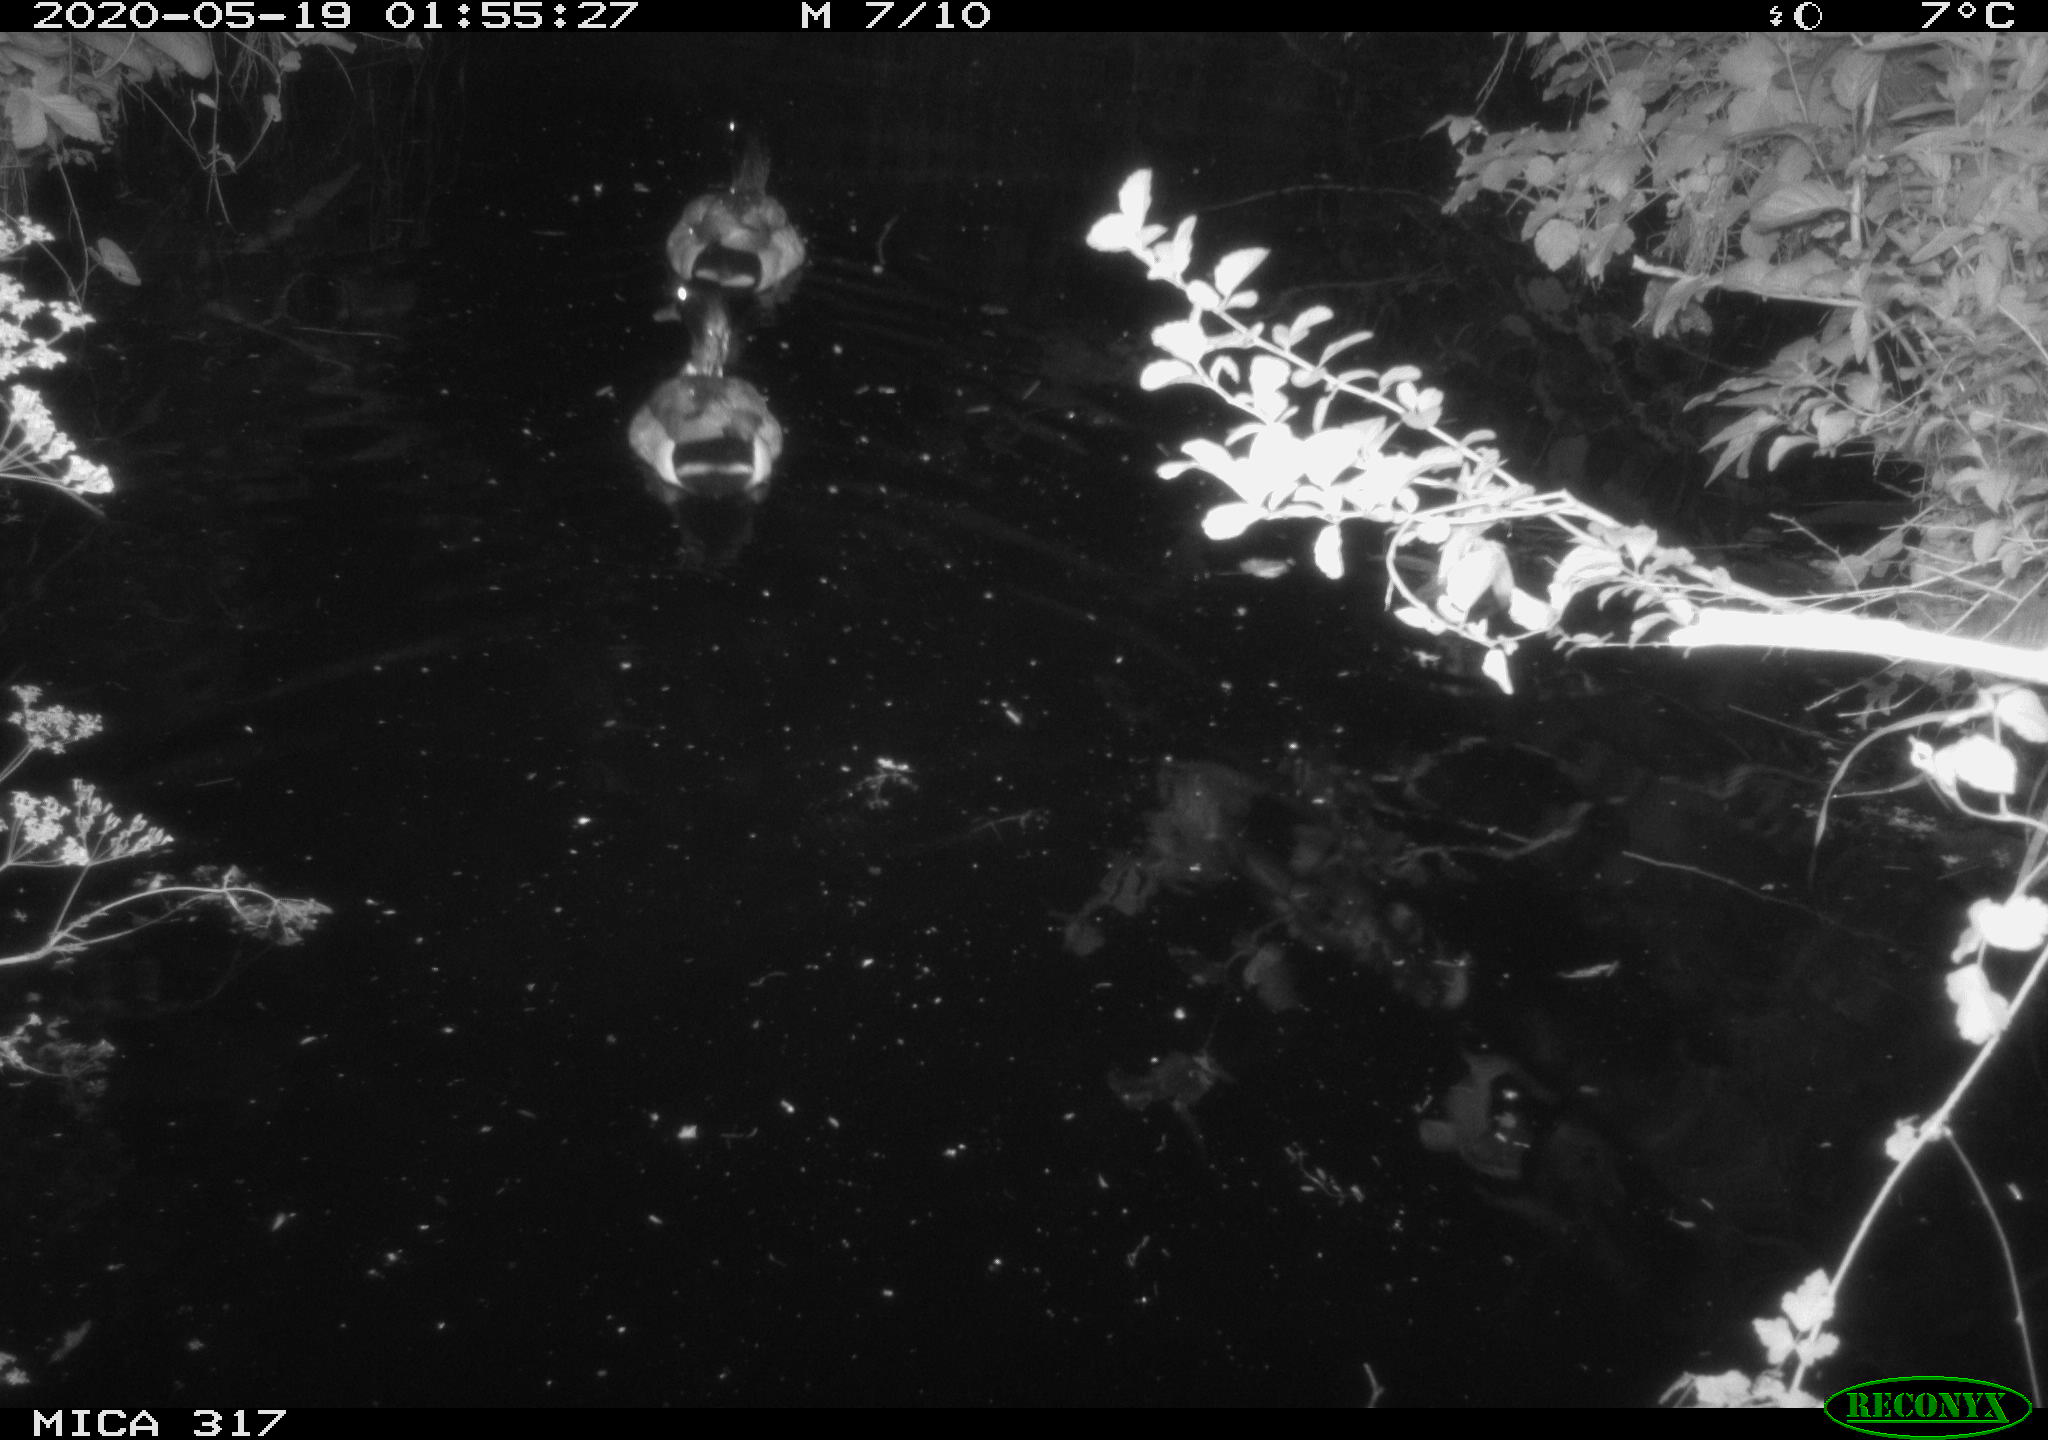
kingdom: Animalia
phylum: Chordata
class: Aves
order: Anseriformes
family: Anatidae
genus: Anas
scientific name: Anas platyrhynchos
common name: Mallard
